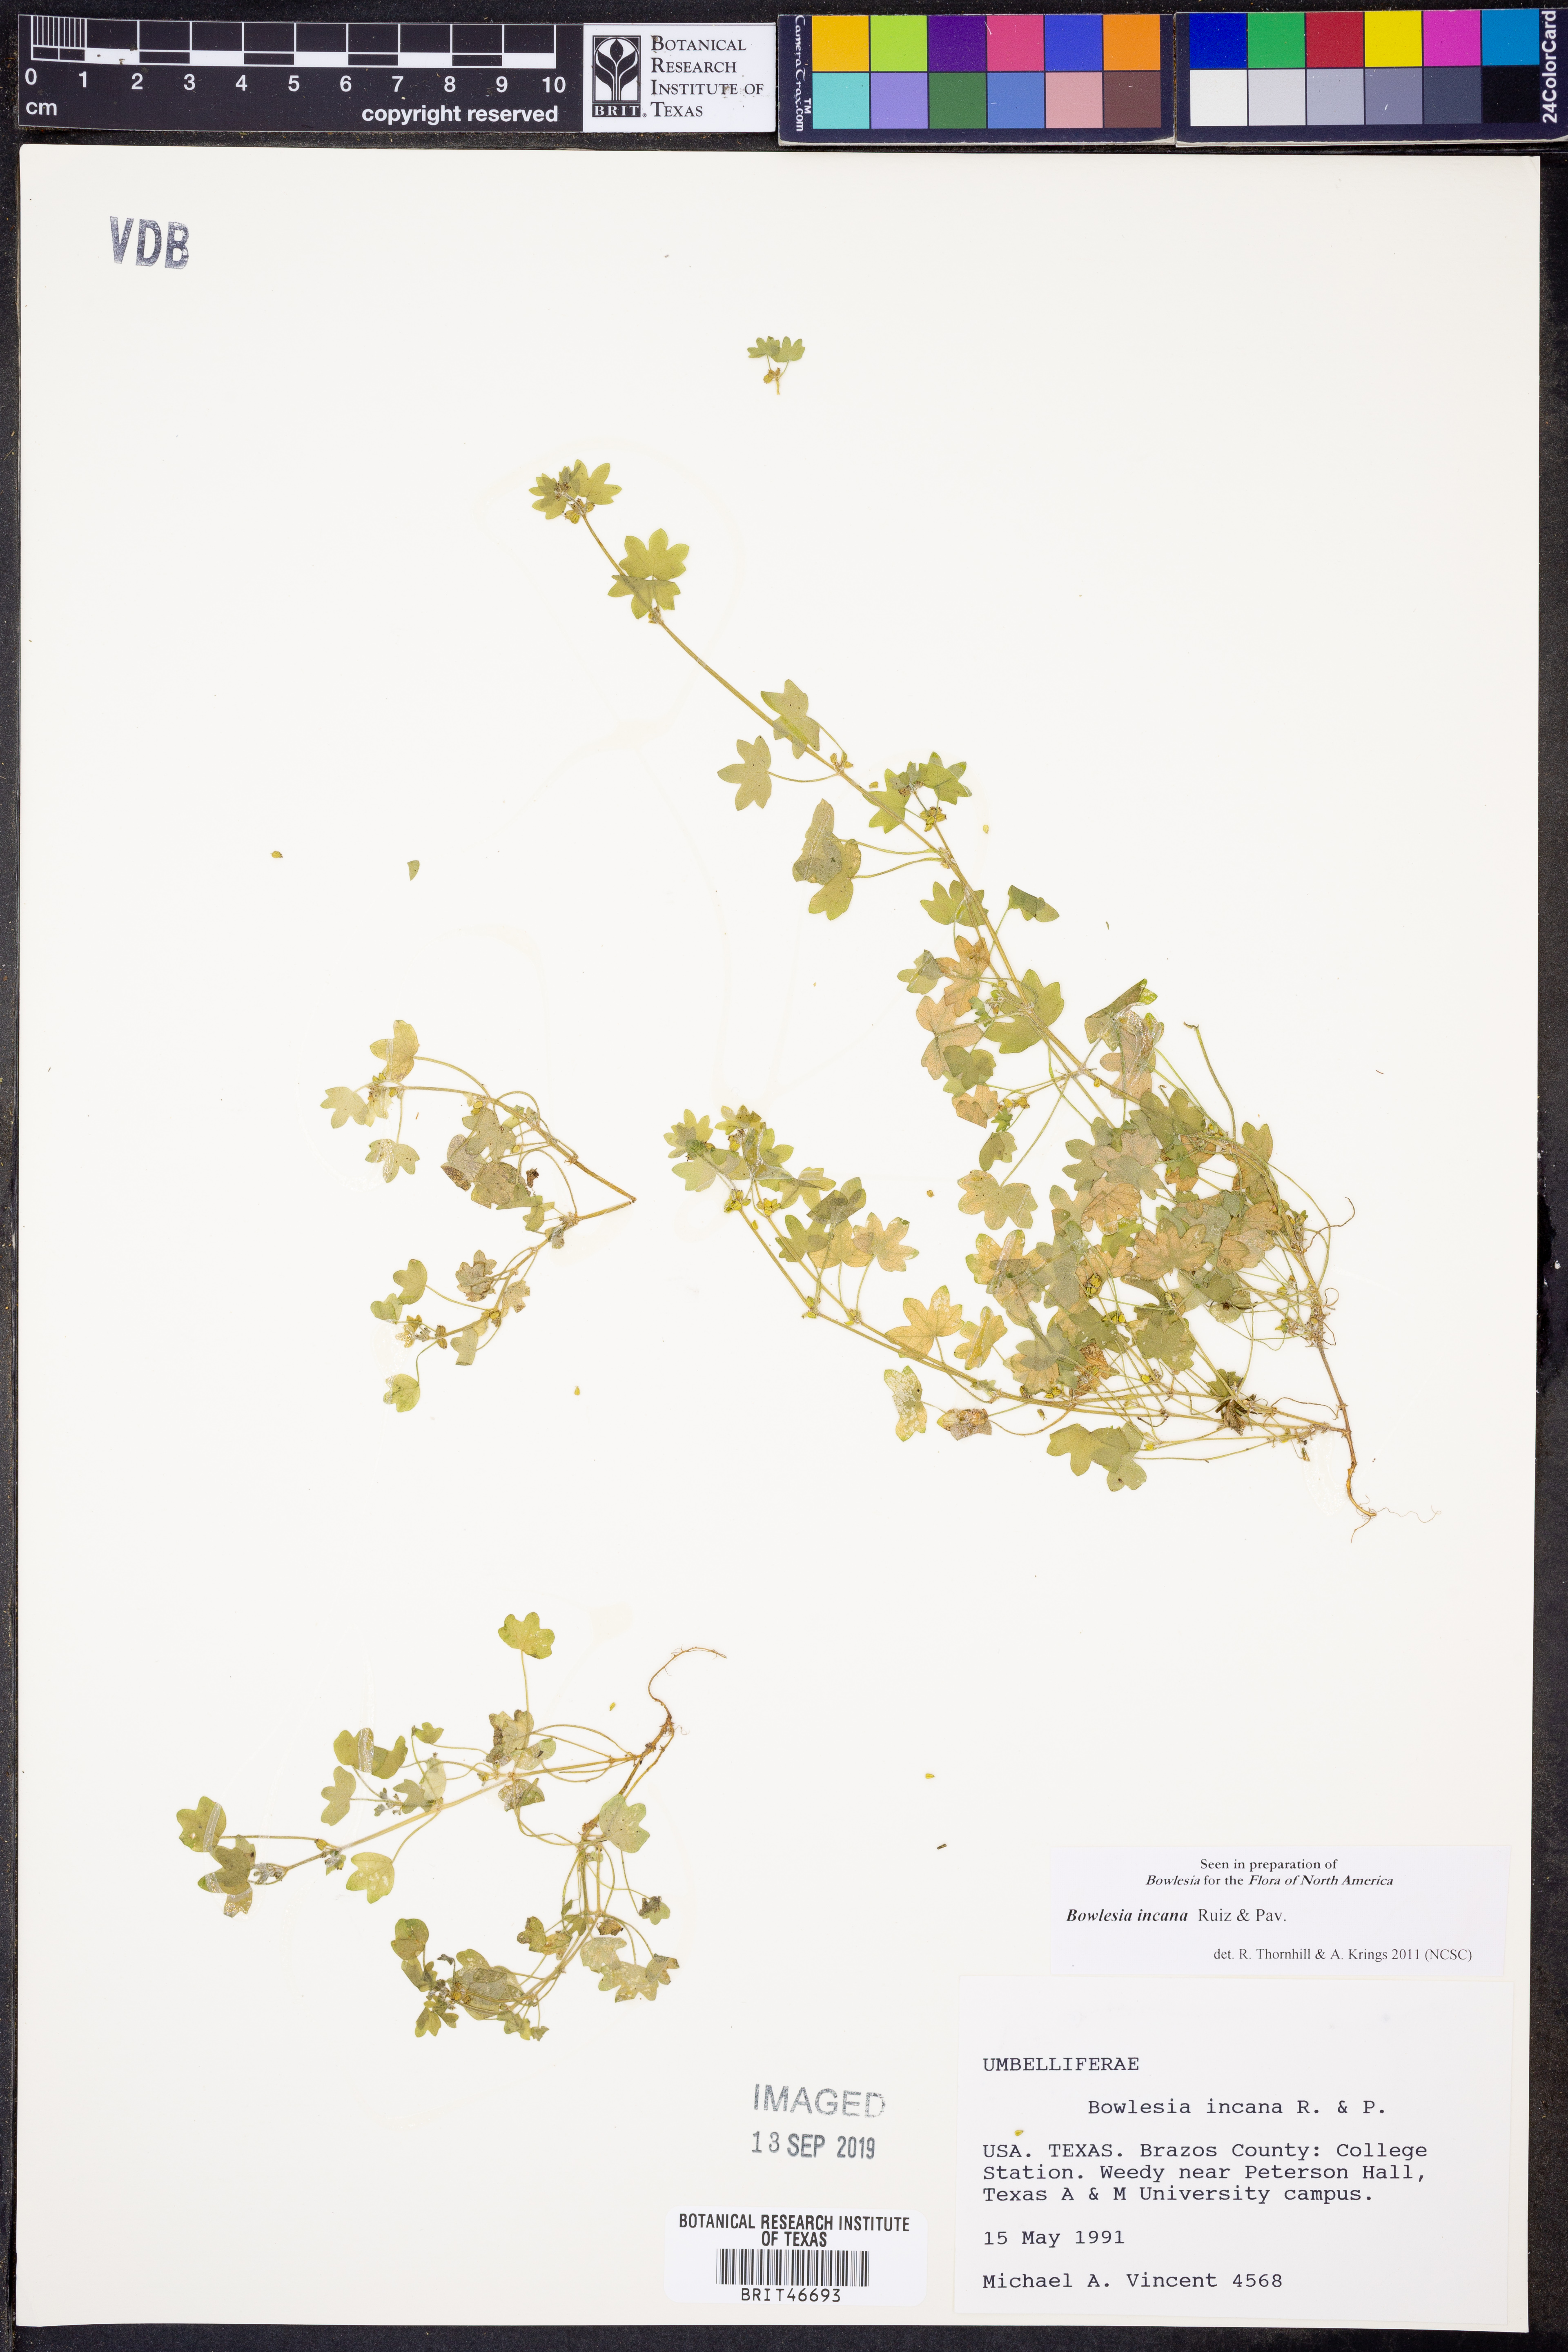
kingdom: Plantae
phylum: Tracheophyta
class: Magnoliopsida
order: Apiales
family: Apiaceae
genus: Bowlesia
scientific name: Bowlesia incana
